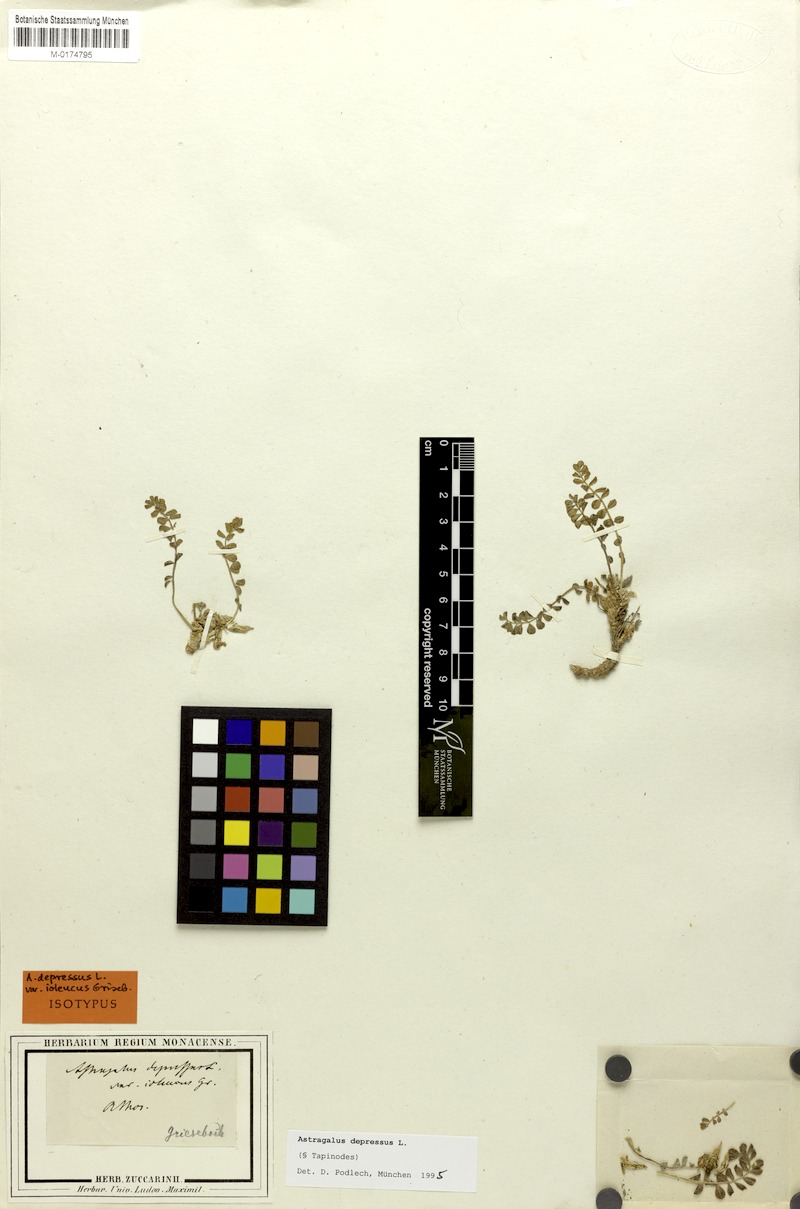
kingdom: Plantae
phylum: Tracheophyta
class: Magnoliopsida
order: Fabales
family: Fabaceae
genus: Astragalus
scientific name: Astragalus depressus
